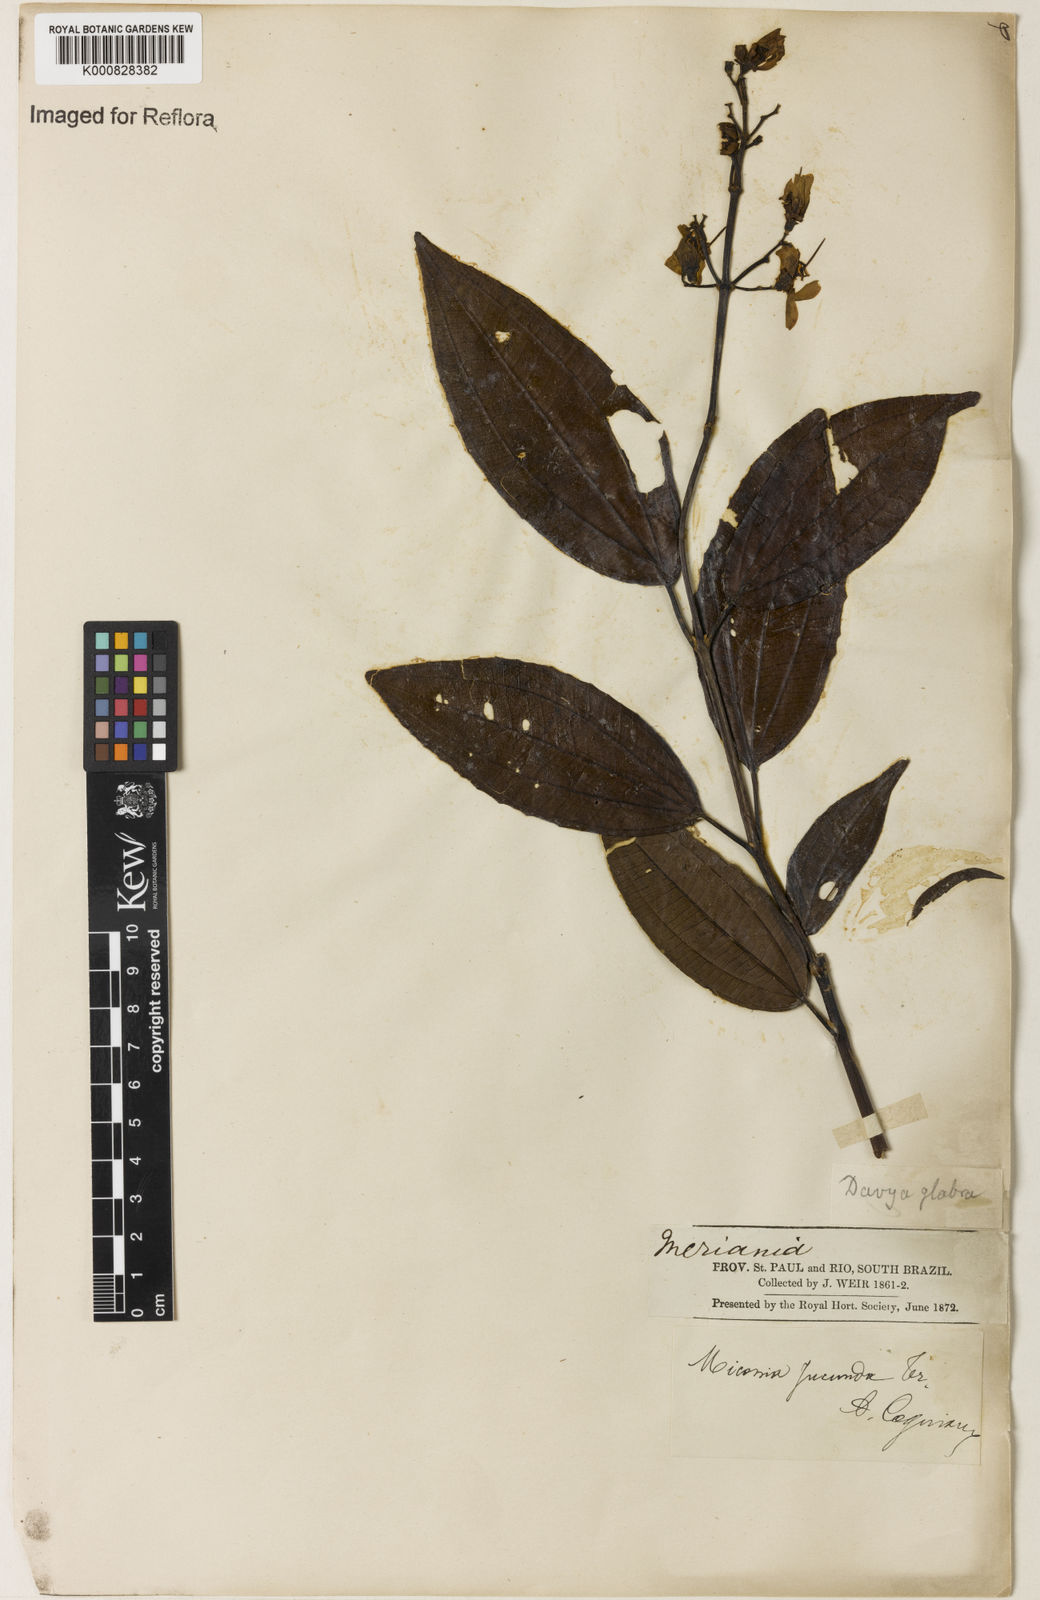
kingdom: Plantae
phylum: Tracheophyta
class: Magnoliopsida
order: Myrtales
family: Melastomataceae
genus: Miconia
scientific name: Miconia jucunda
